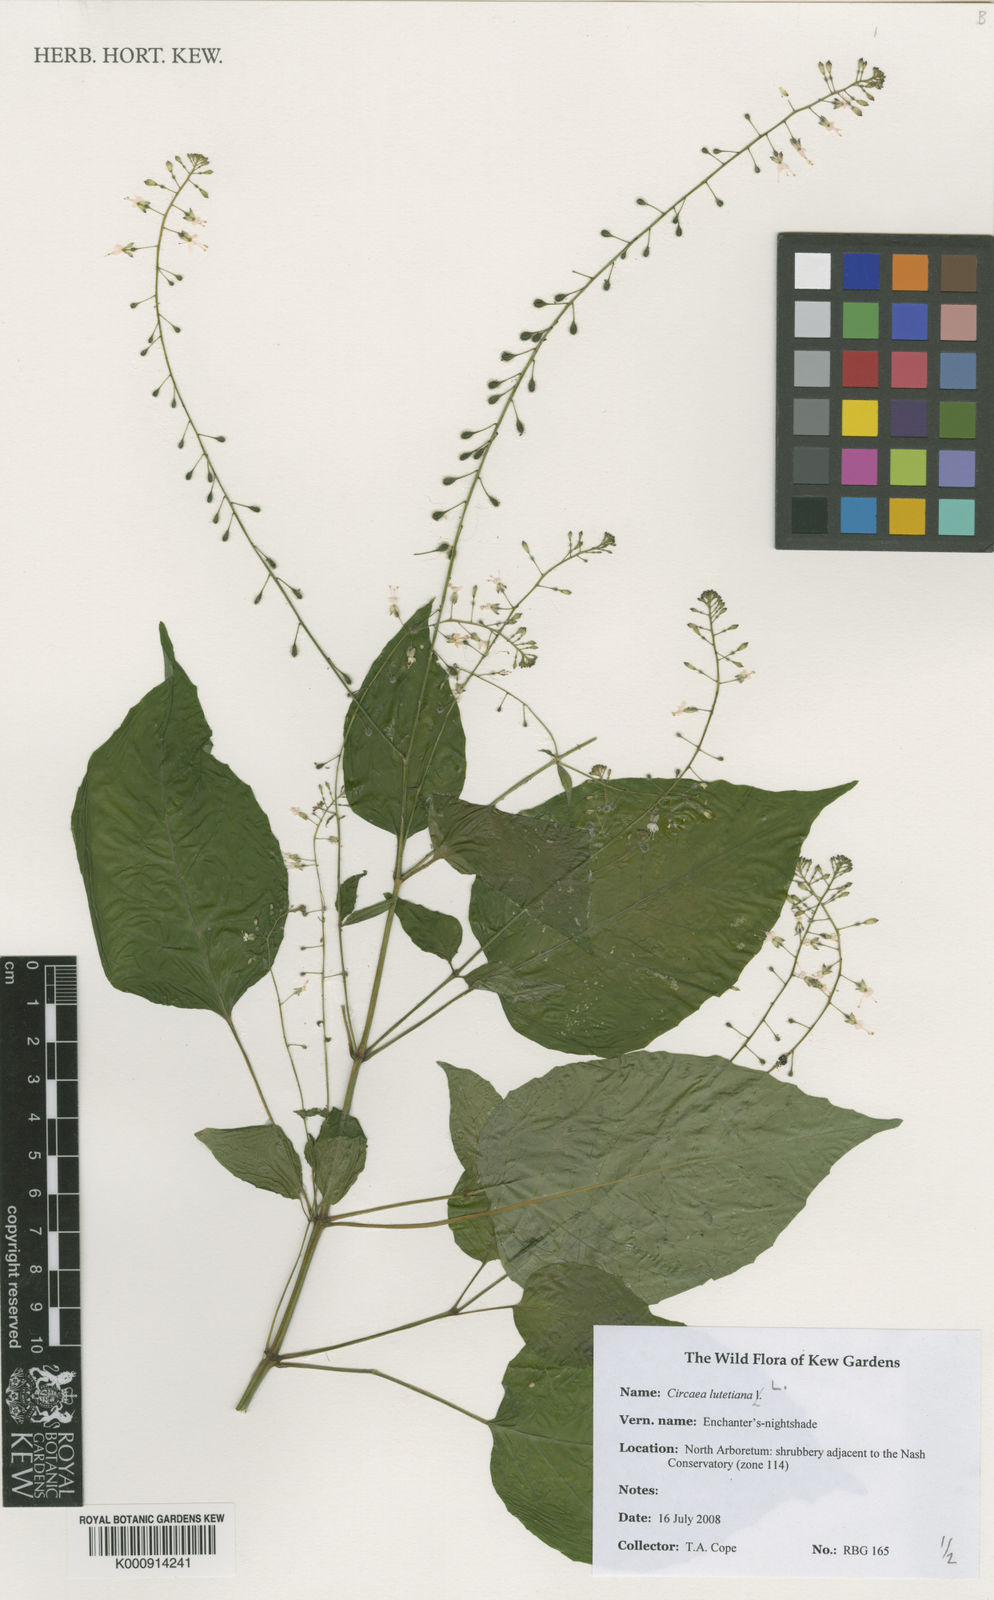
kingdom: Plantae
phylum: Tracheophyta
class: Magnoliopsida
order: Myrtales
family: Onagraceae
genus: Circaea
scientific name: Circaea lutetiana
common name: Enchanter's-nightshade
